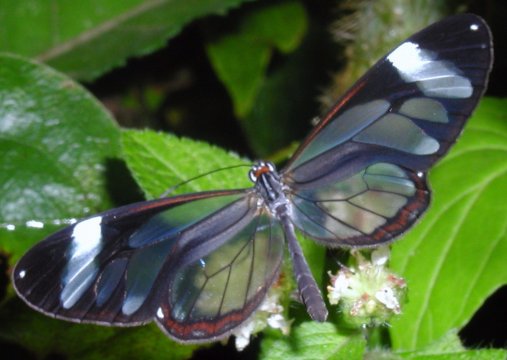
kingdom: Animalia
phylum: Arthropoda
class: Insecta
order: Lepidoptera
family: Nymphalidae
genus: Oleria
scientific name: Oleria paula
